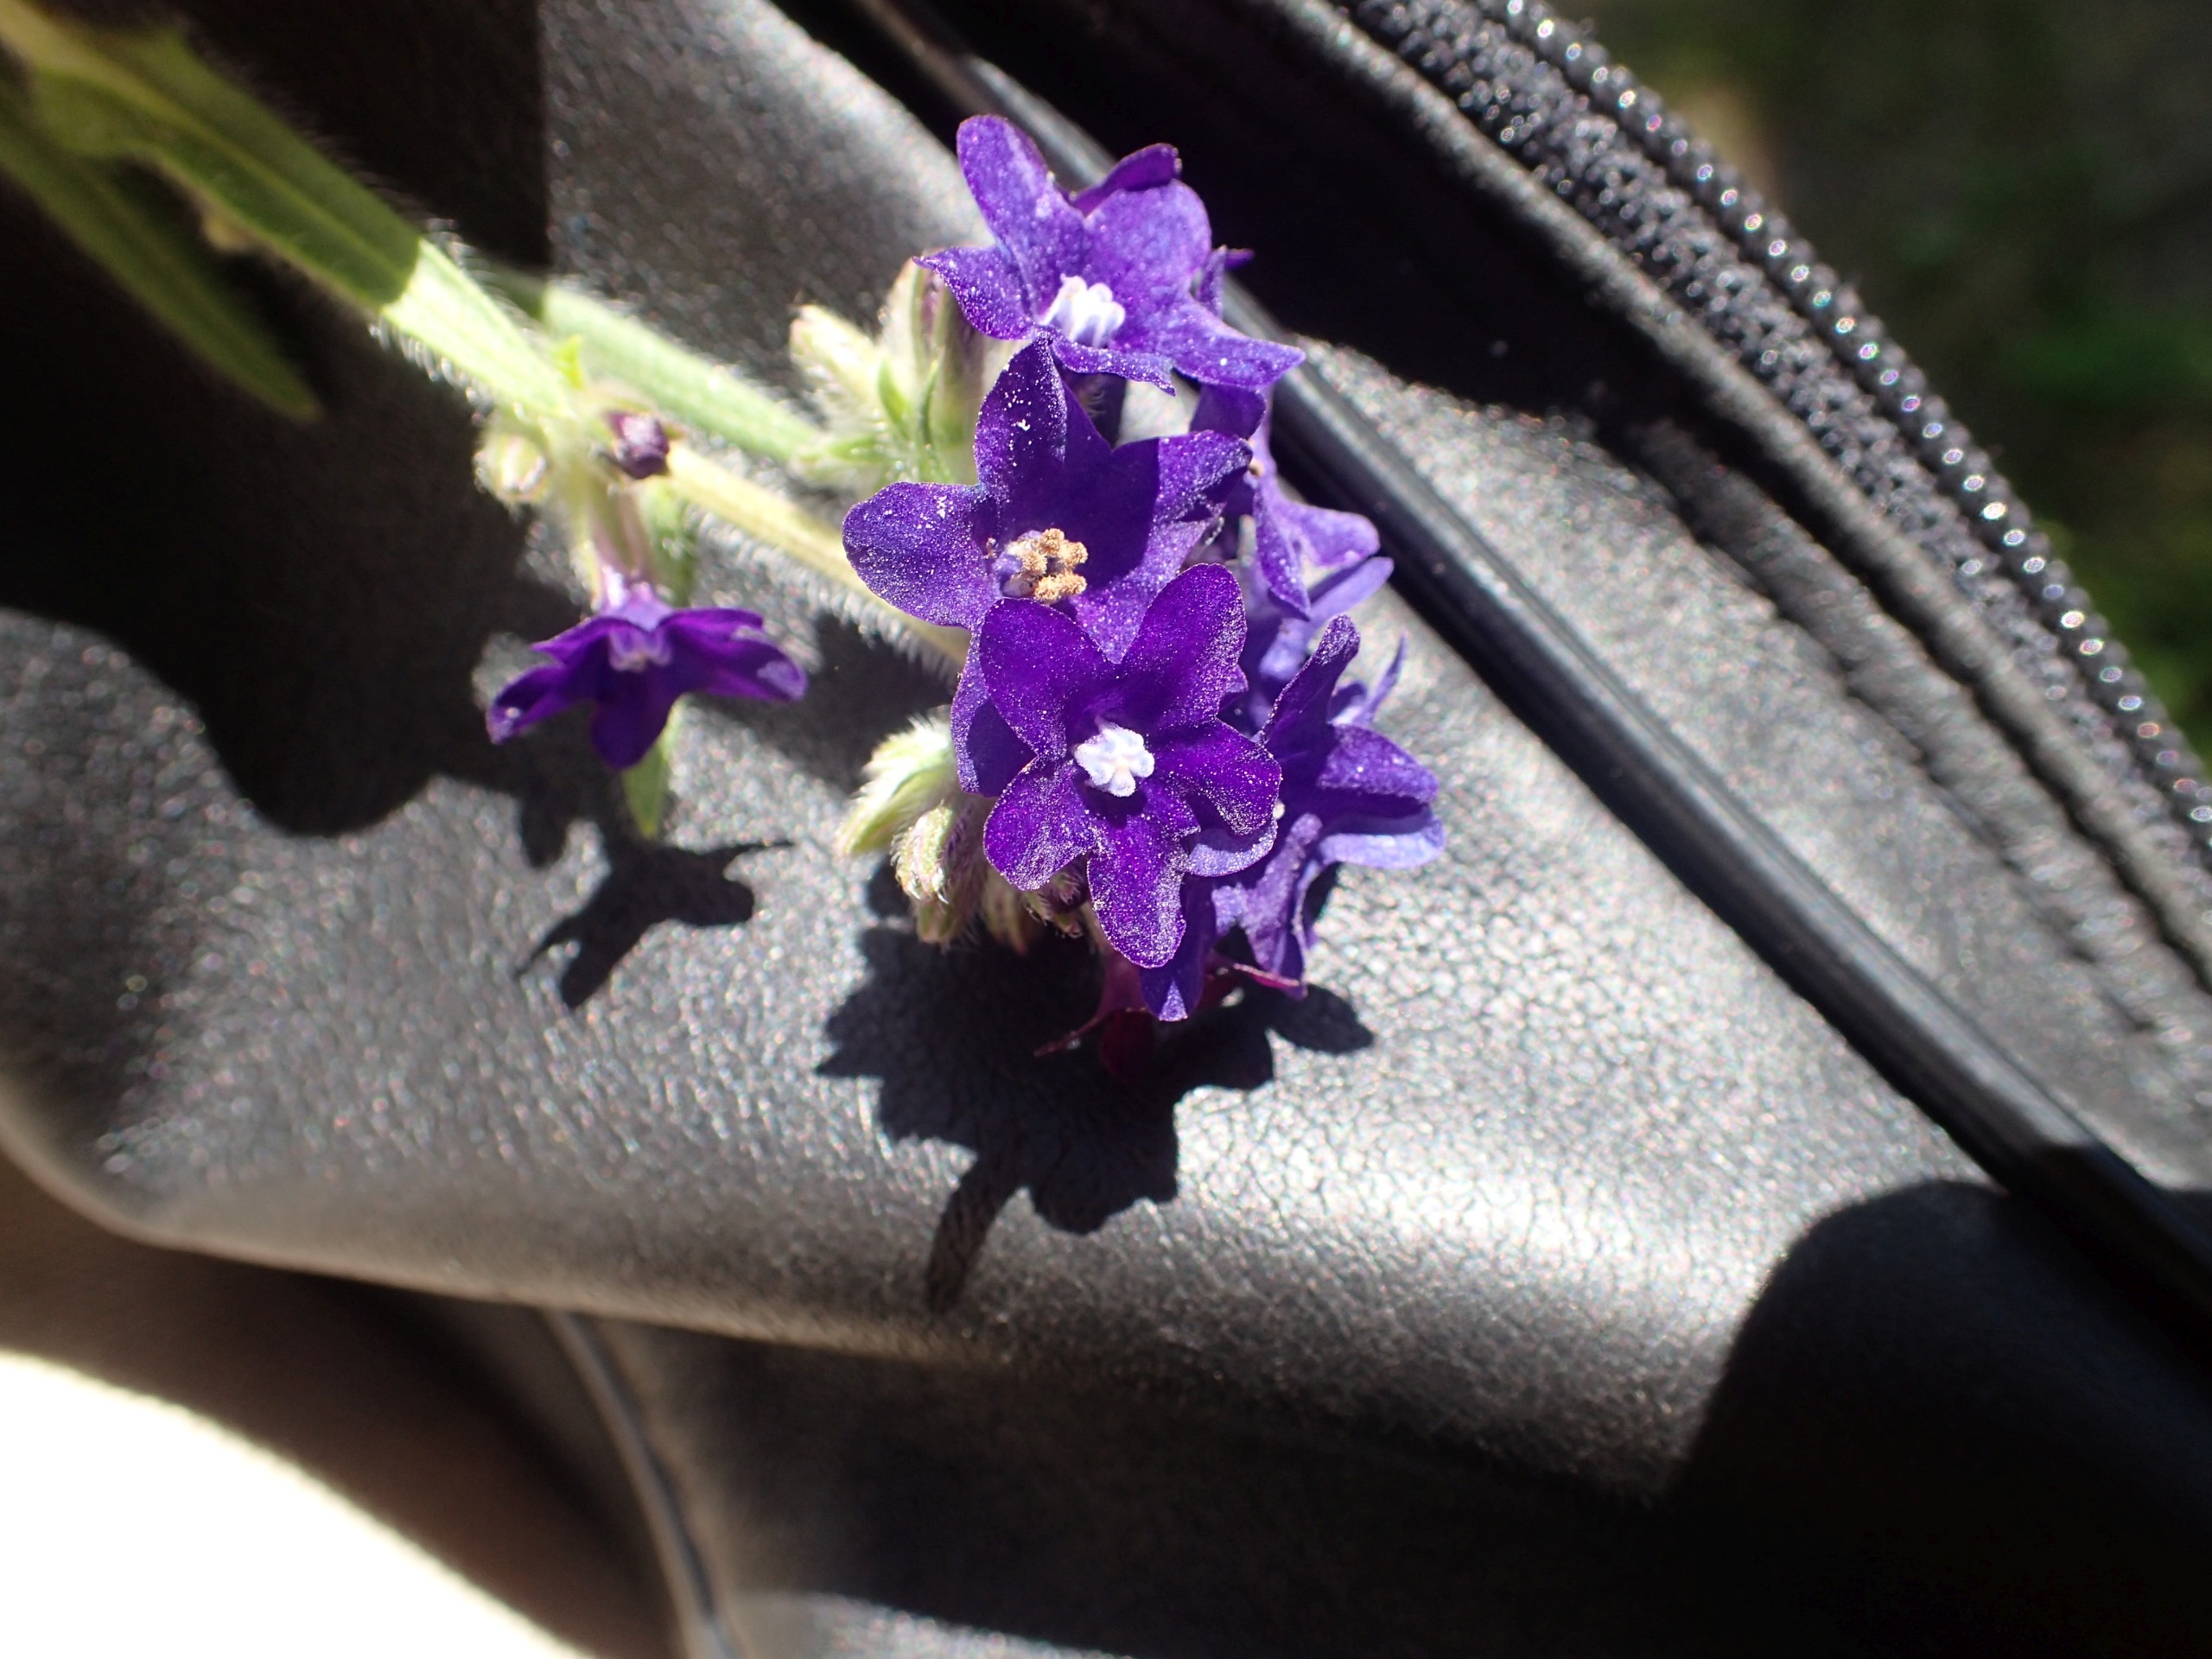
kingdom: Plantae
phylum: Tracheophyta
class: Magnoliopsida
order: Boraginales
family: Boraginaceae
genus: Anchusa
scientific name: Anchusa officinalis
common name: Læge-oksetunge
